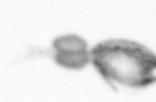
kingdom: Animalia
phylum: Arthropoda
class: Copepoda
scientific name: Copepoda
